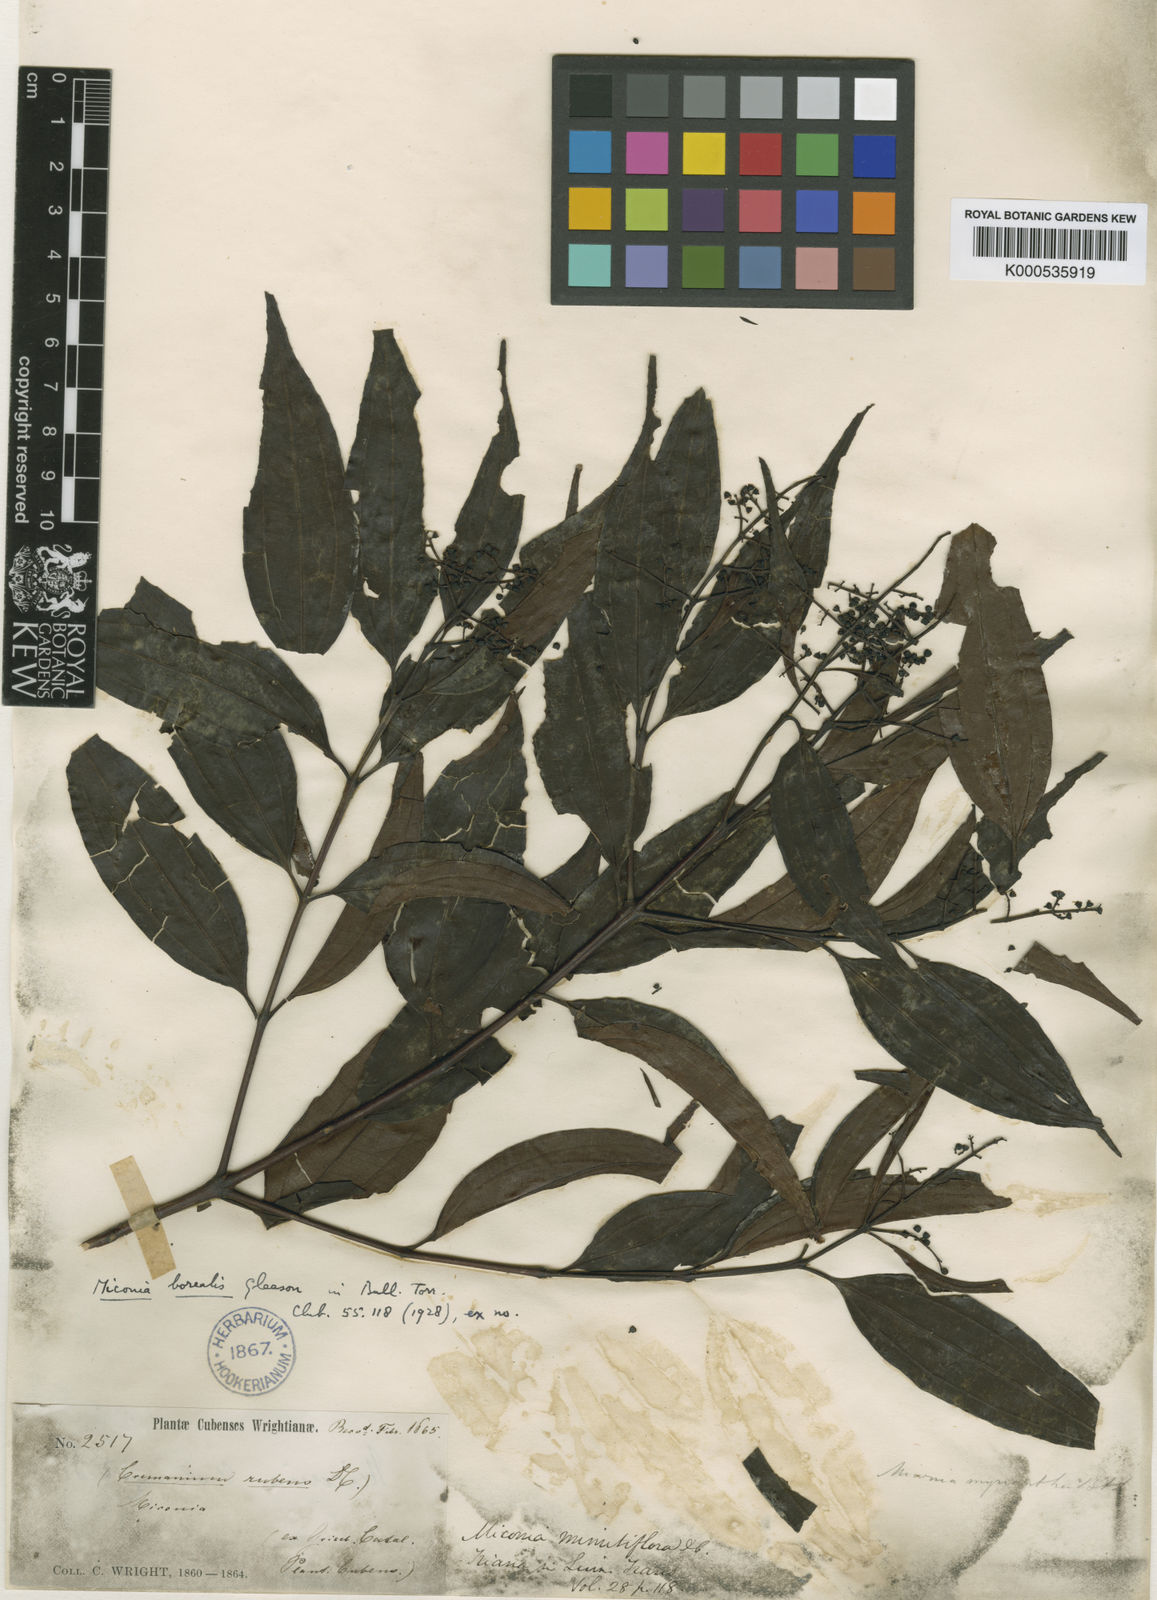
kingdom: Plantae
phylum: Tracheophyta
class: Magnoliopsida
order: Myrtales
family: Melastomataceae
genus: Miconia
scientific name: Miconia minutiflora
